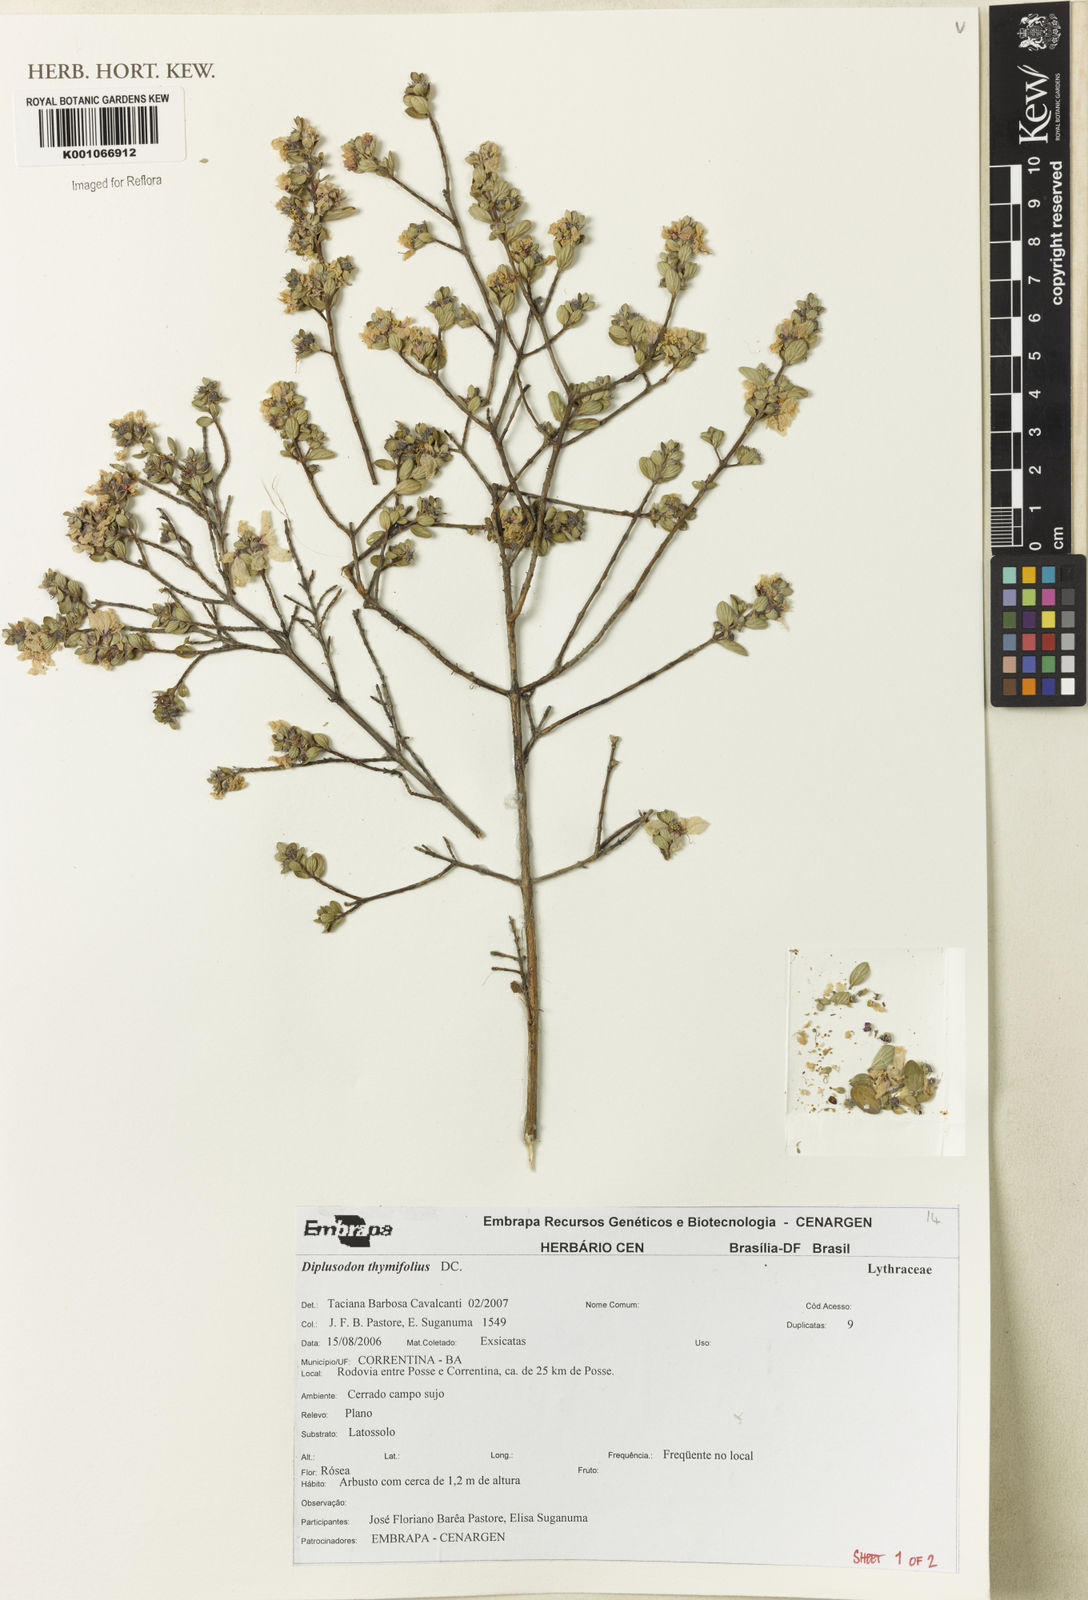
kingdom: Plantae
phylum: Tracheophyta
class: Magnoliopsida
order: Myrtales
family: Lythraceae
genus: Diplusodon
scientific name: Diplusodon thymifolius
